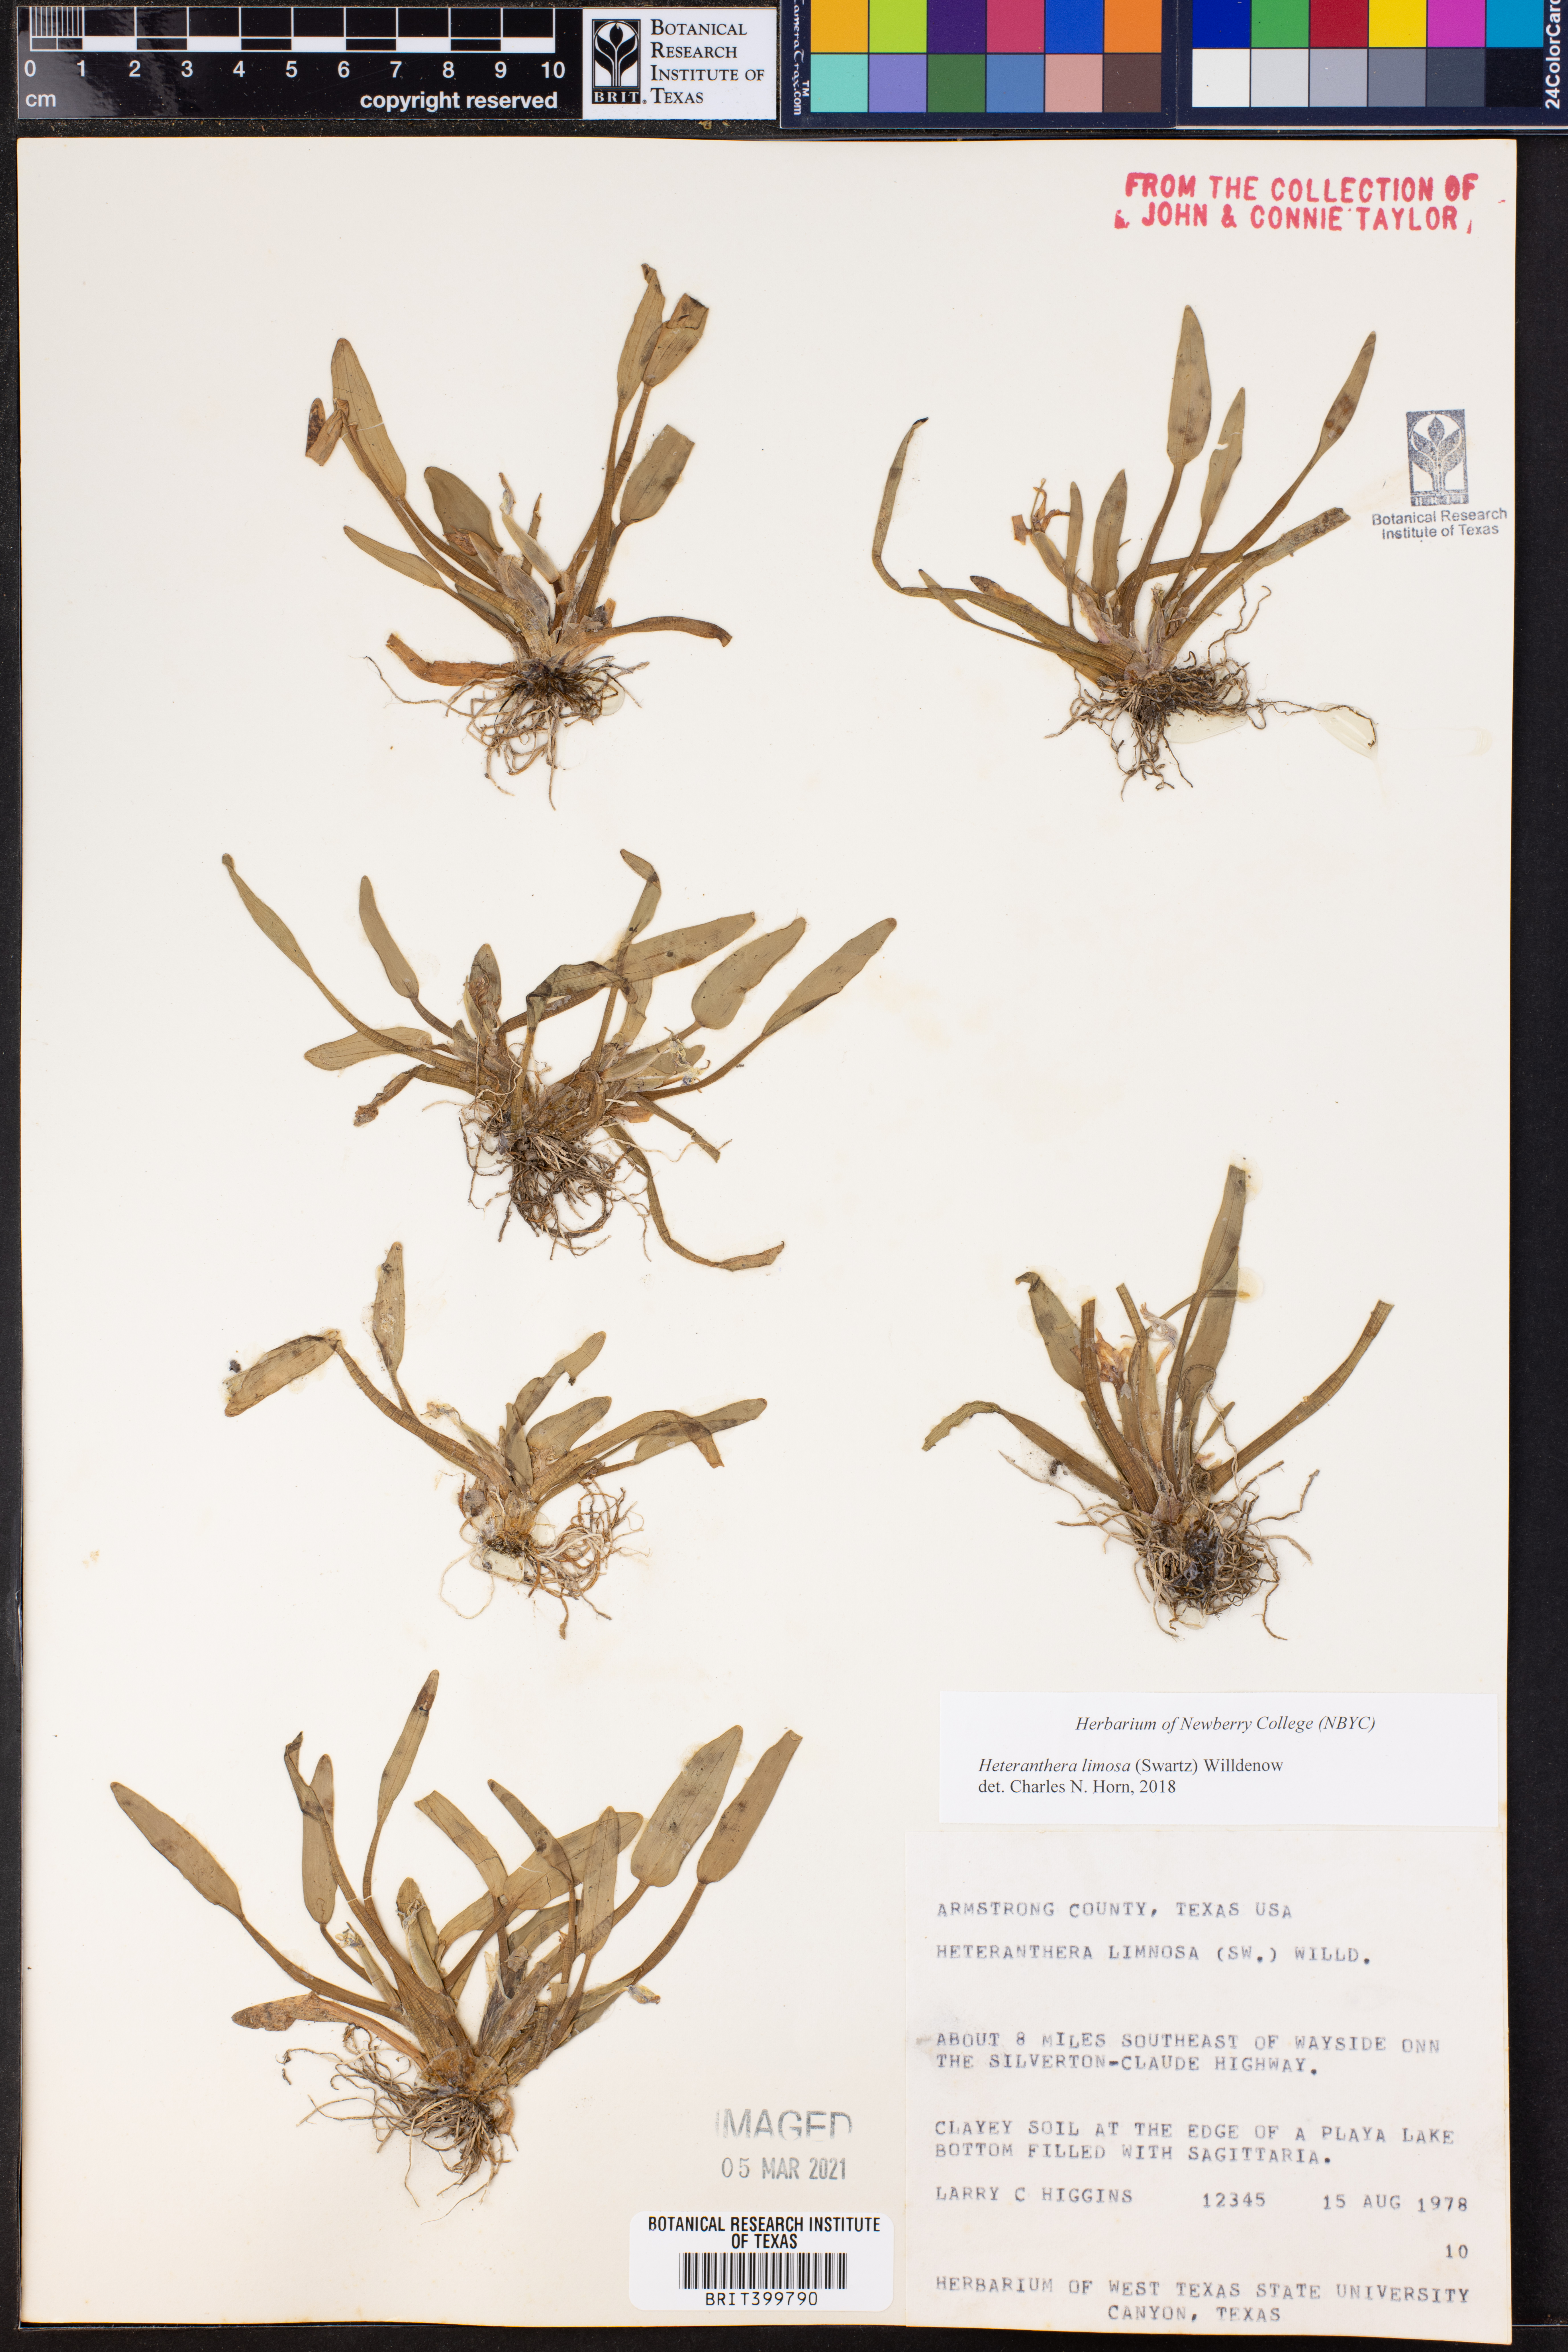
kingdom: Plantae
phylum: Tracheophyta
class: Liliopsida
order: Commelinales
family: Pontederiaceae
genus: Heteranthera
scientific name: Heteranthera limosa
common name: Blue mud-plantain
